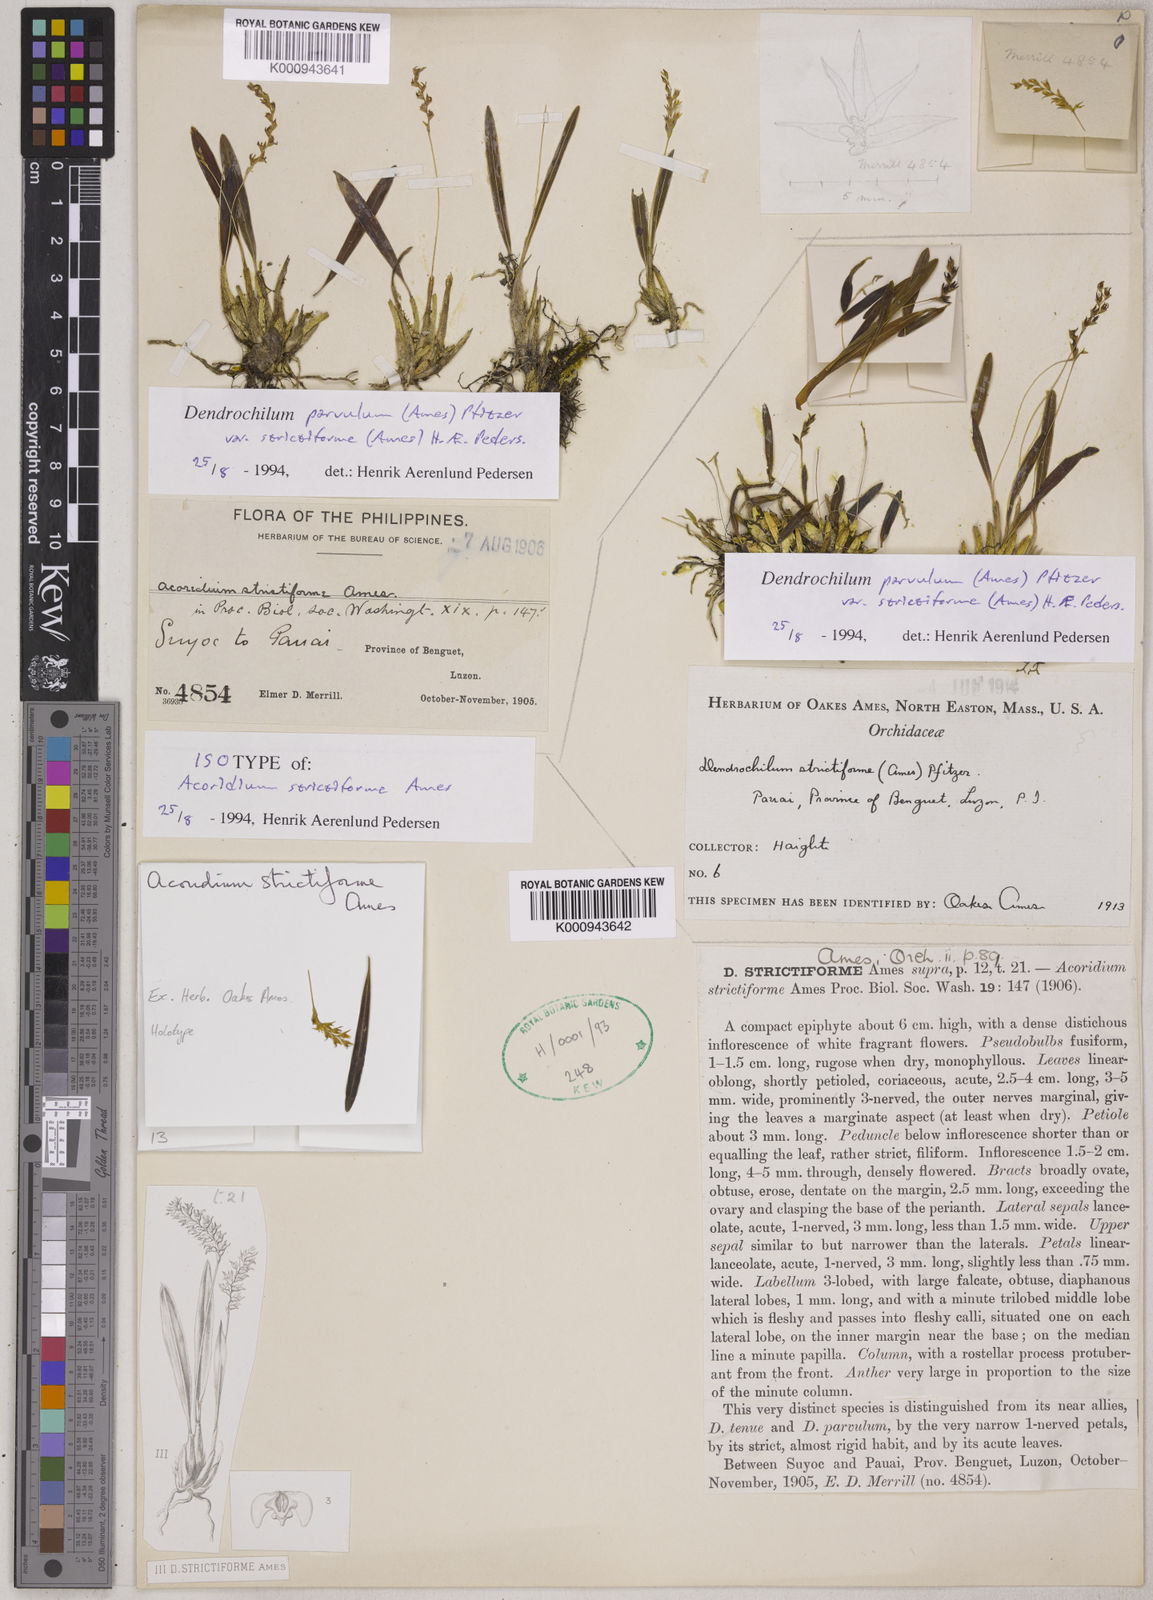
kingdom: Plantae
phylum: Tracheophyta
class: Liliopsida
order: Asparagales
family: Orchidaceae
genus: Coelogyne
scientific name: Coelogyne parvula
